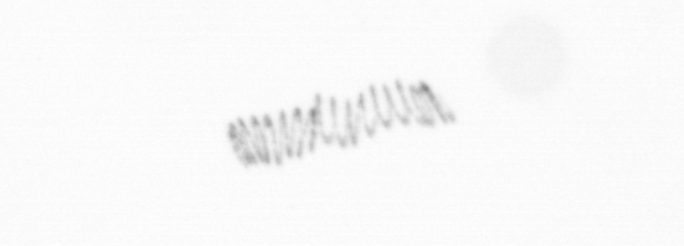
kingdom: Chromista
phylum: Ochrophyta
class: Bacillariophyceae
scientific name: Bacillariophyceae
